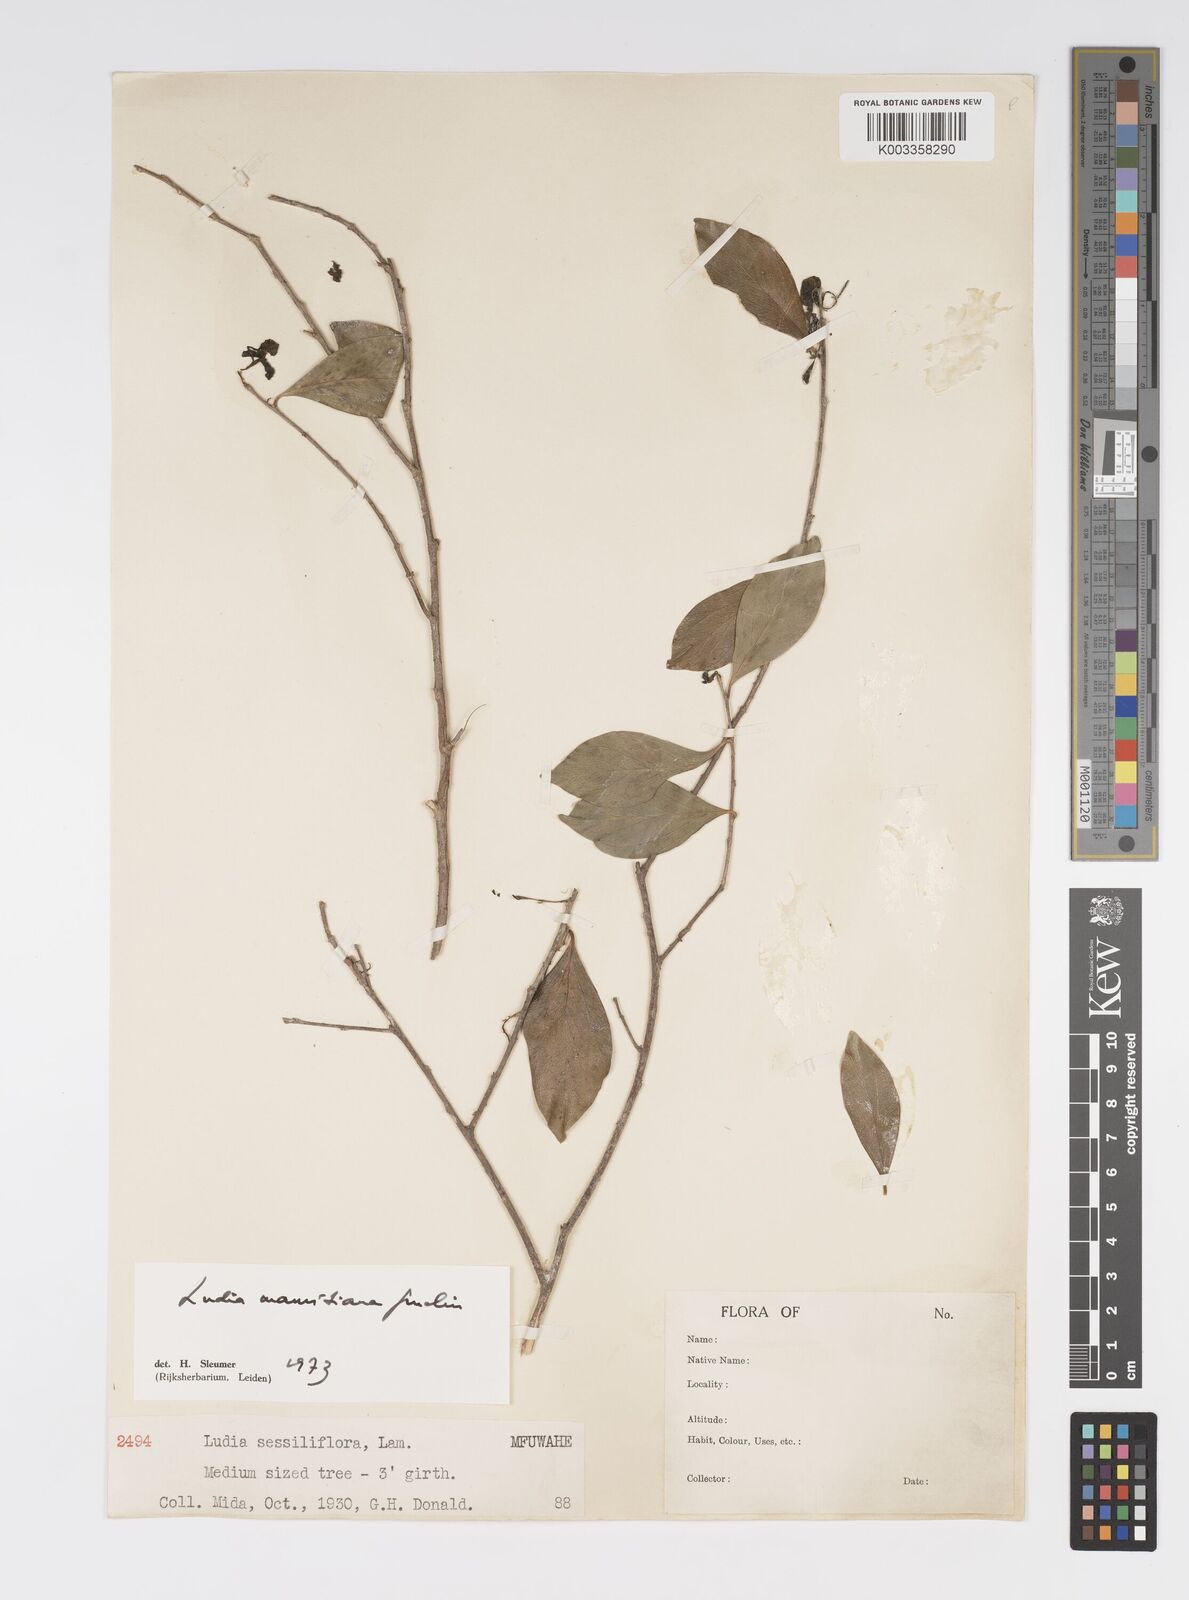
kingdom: Plantae
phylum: Tracheophyta
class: Magnoliopsida
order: Malpighiales
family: Salicaceae
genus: Ludia
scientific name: Ludia mauritiana
